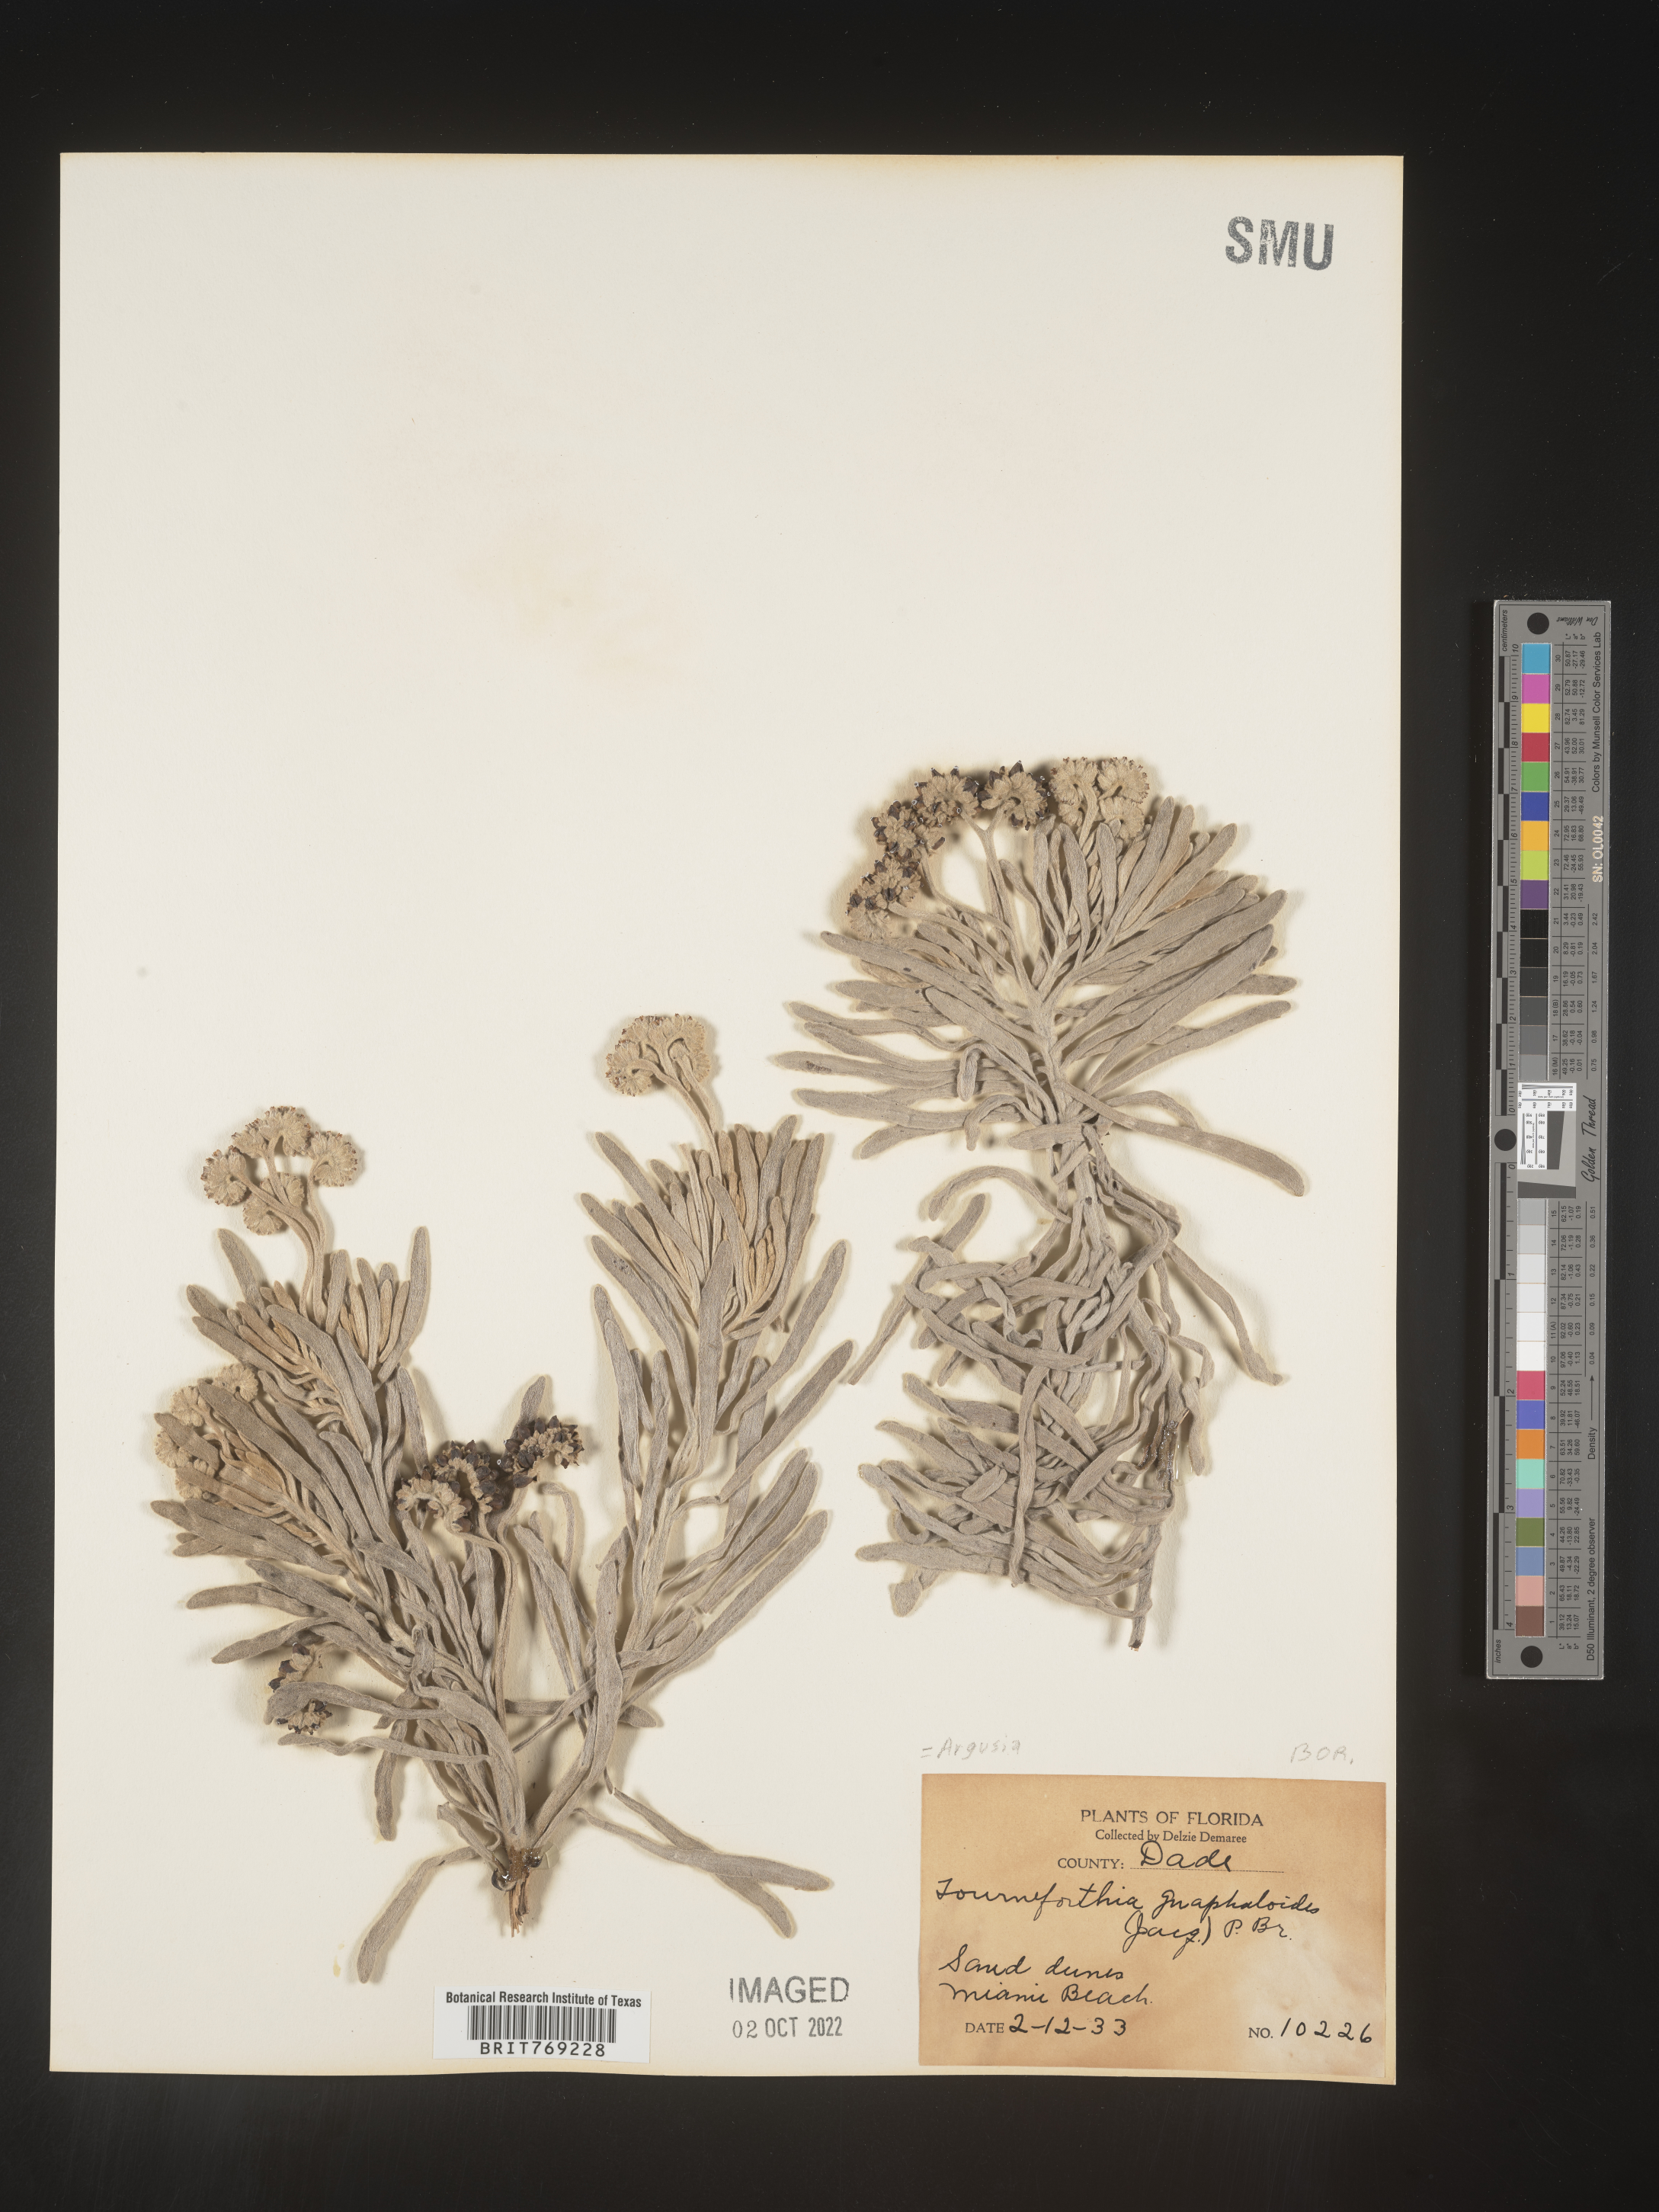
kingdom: Plantae
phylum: Tracheophyta
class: Magnoliopsida
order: Boraginales
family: Heliotropiaceae
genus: Tournefortia
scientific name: Tournefortia
